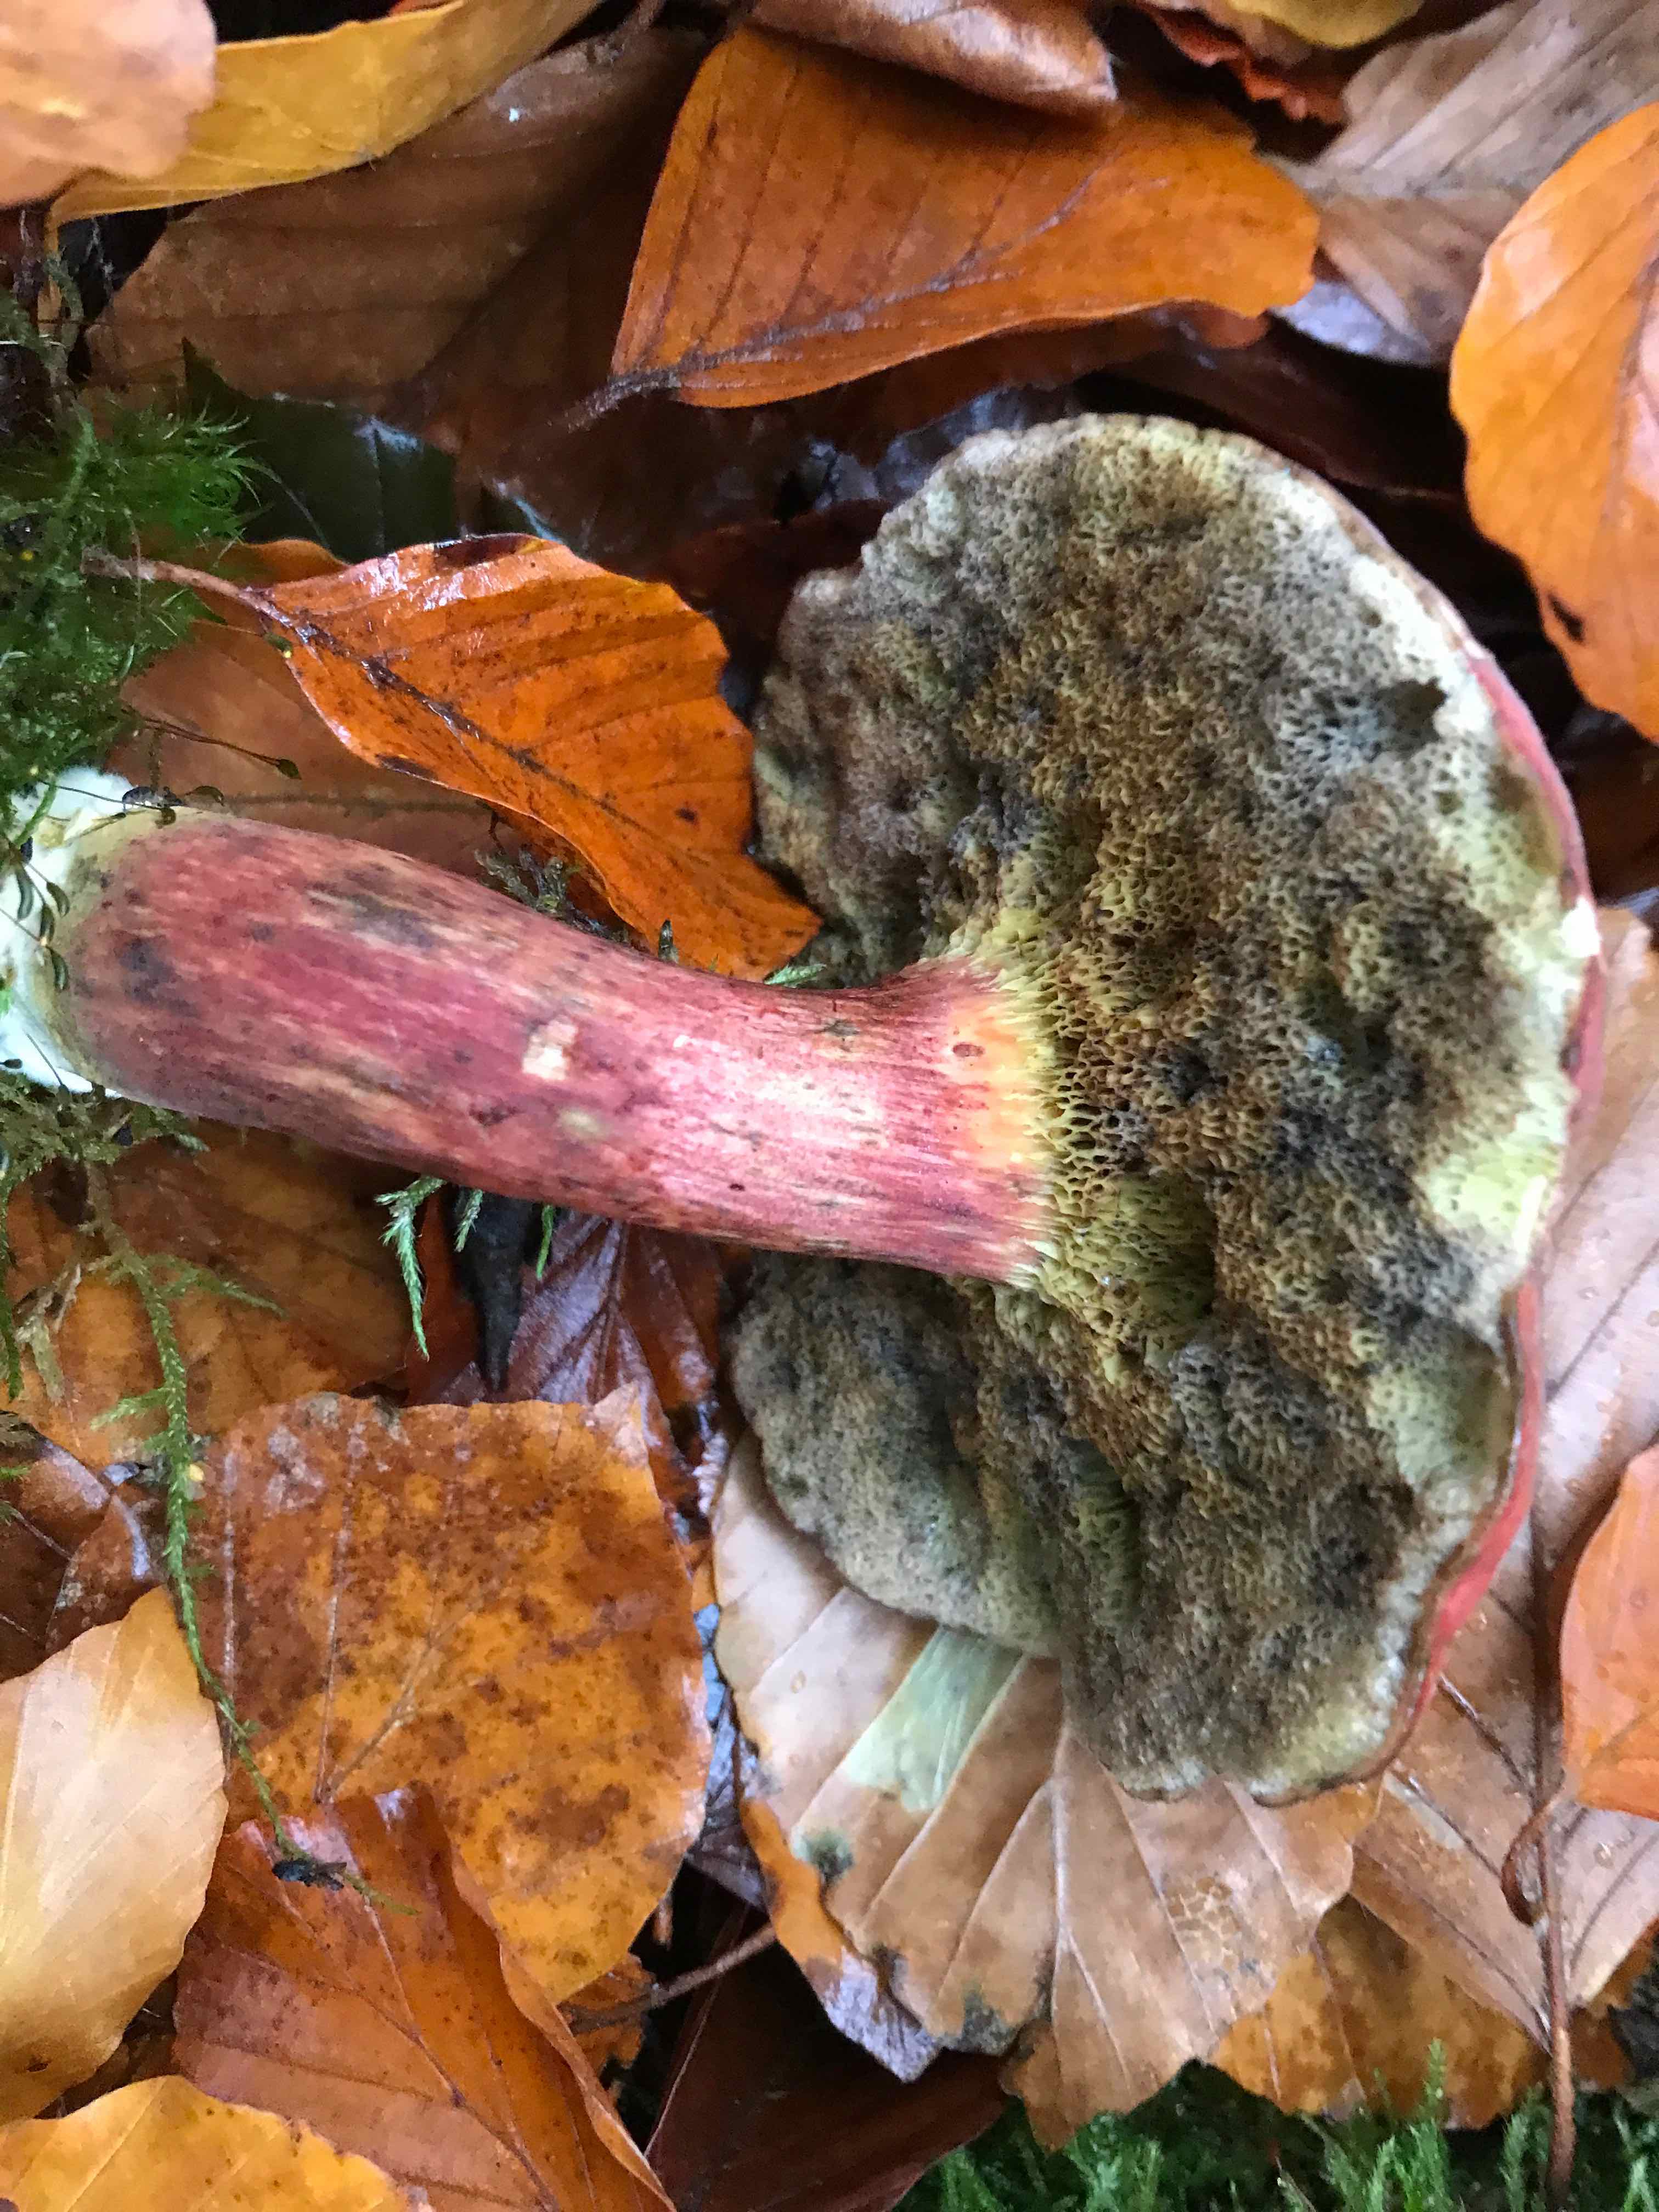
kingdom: Fungi
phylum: Basidiomycota
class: Agaricomycetes
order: Boletales
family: Boletaceae
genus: Xerocomellus
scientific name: Xerocomellus pruinatus
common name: dugget rørhat
